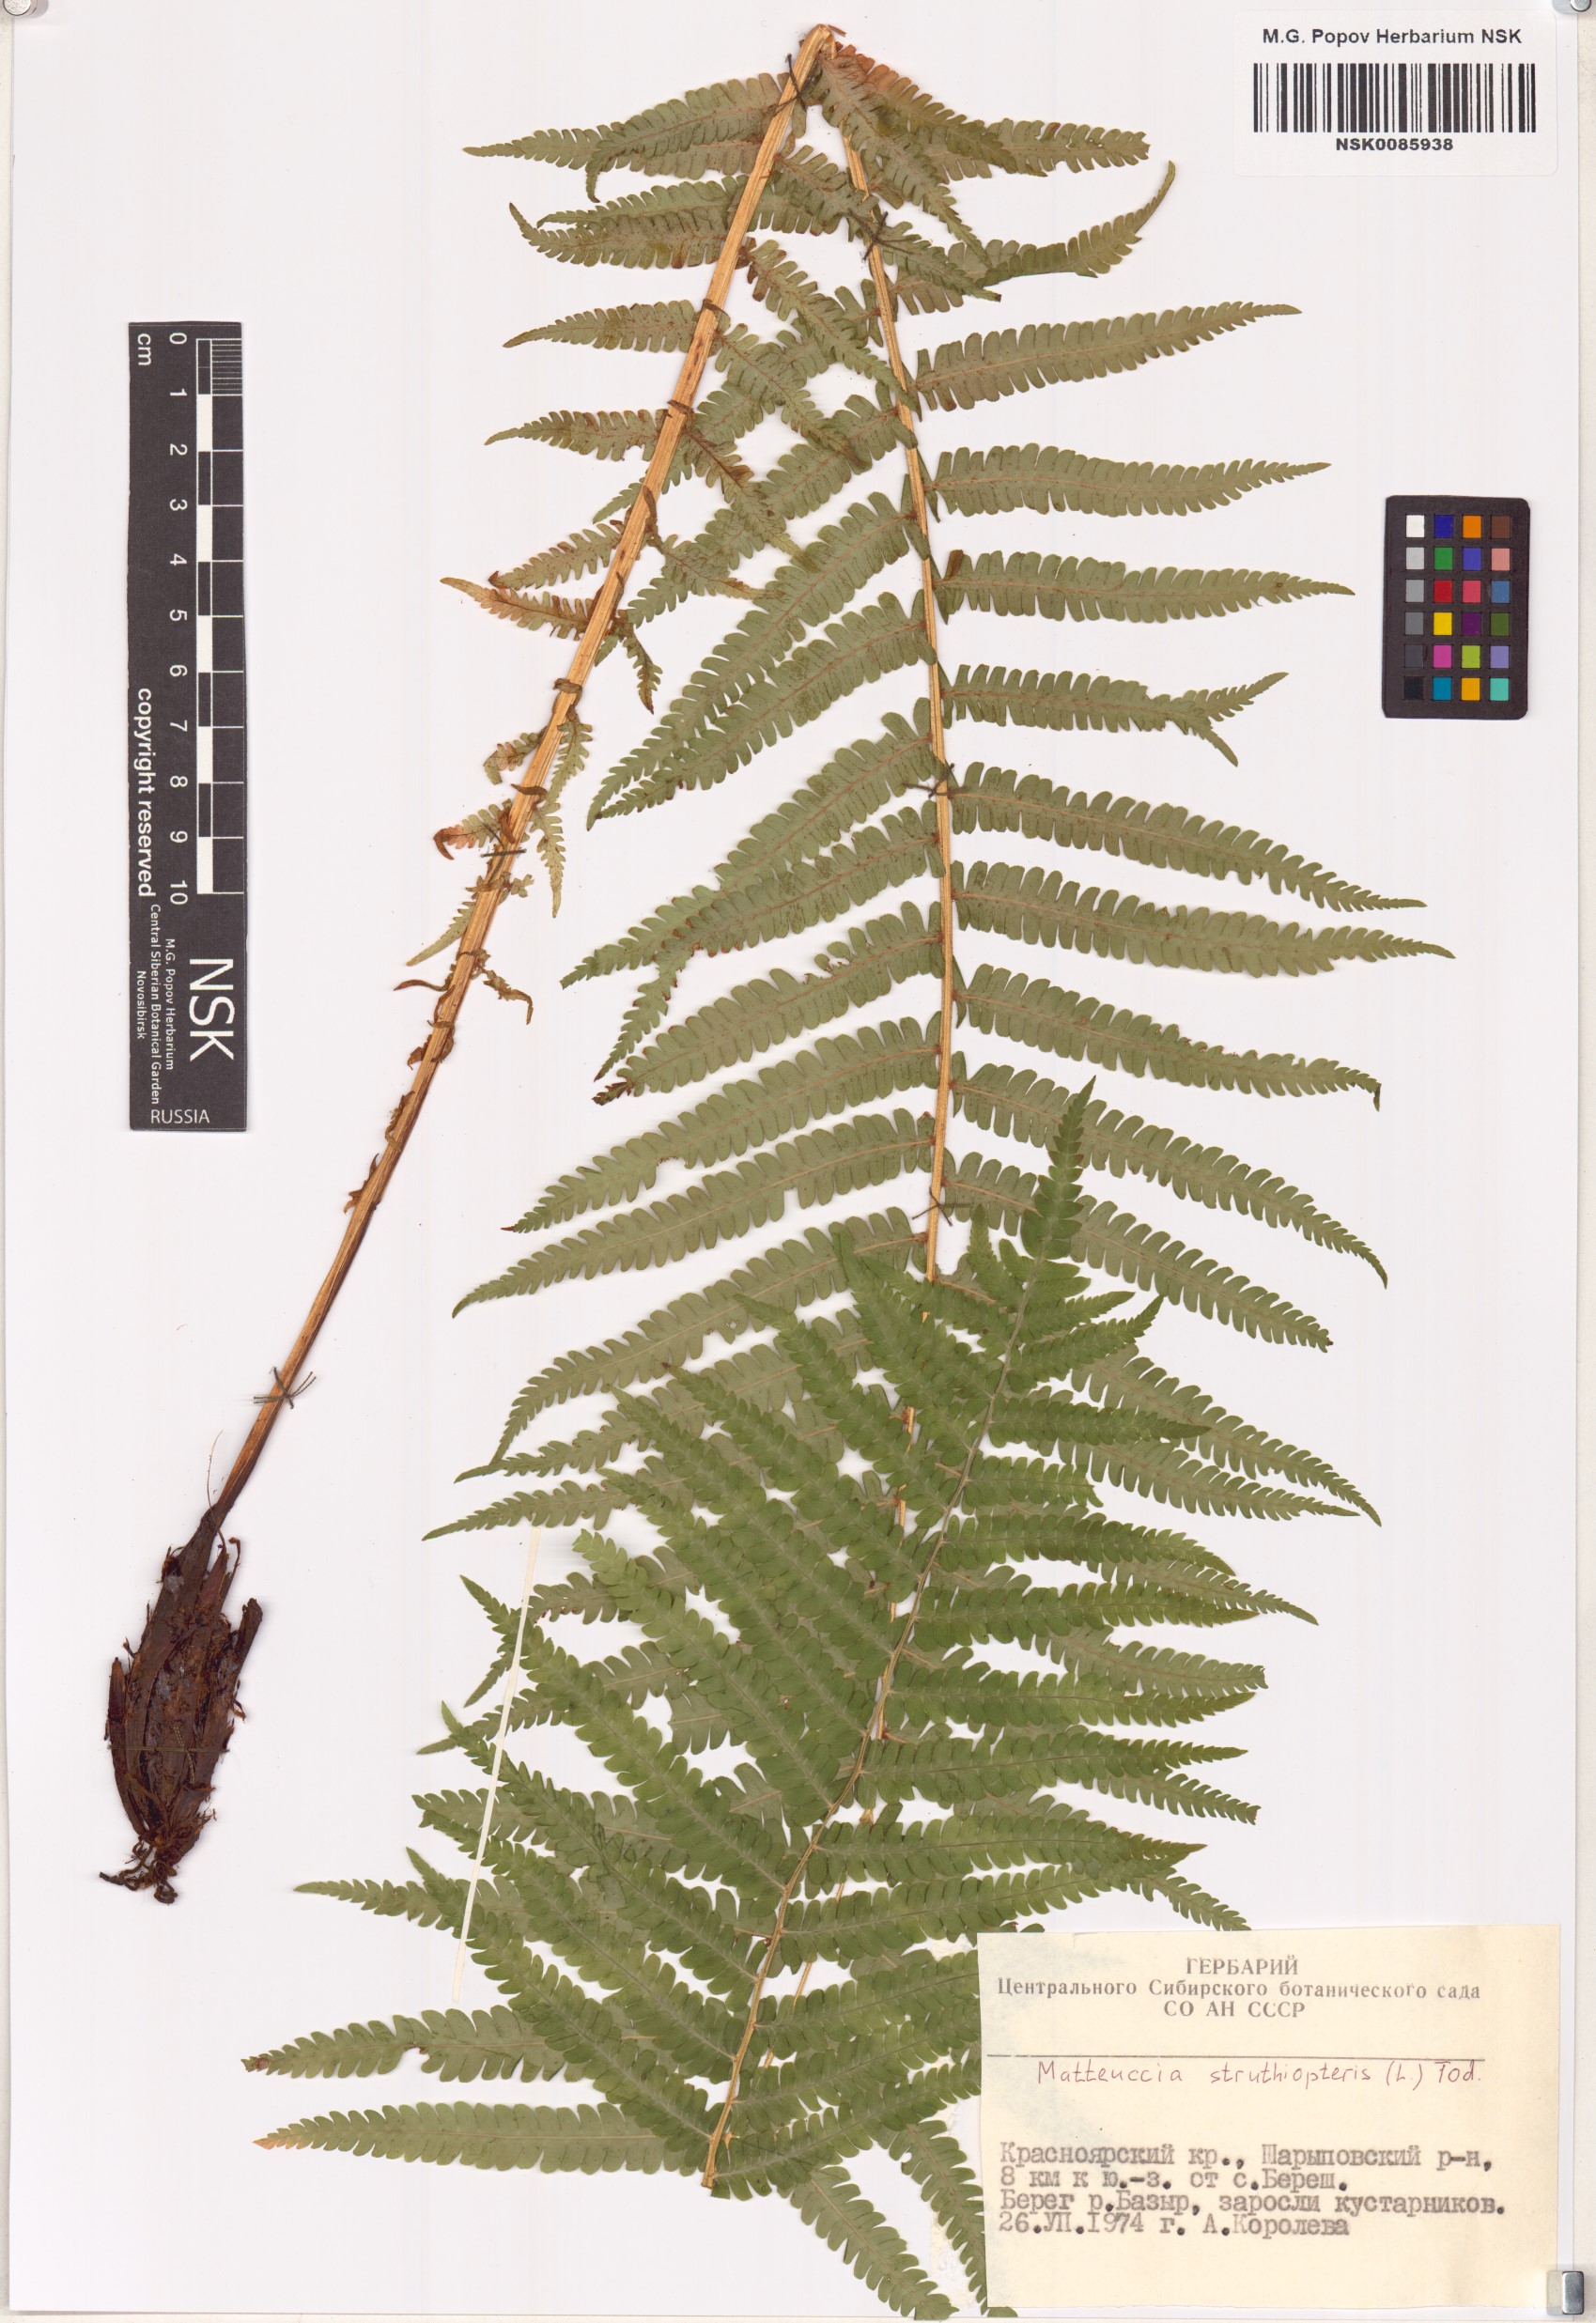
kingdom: Plantae
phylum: Tracheophyta
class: Polypodiopsida
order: Polypodiales
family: Onocleaceae
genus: Matteuccia
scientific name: Matteuccia struthiopteris
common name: Ostrich fern
